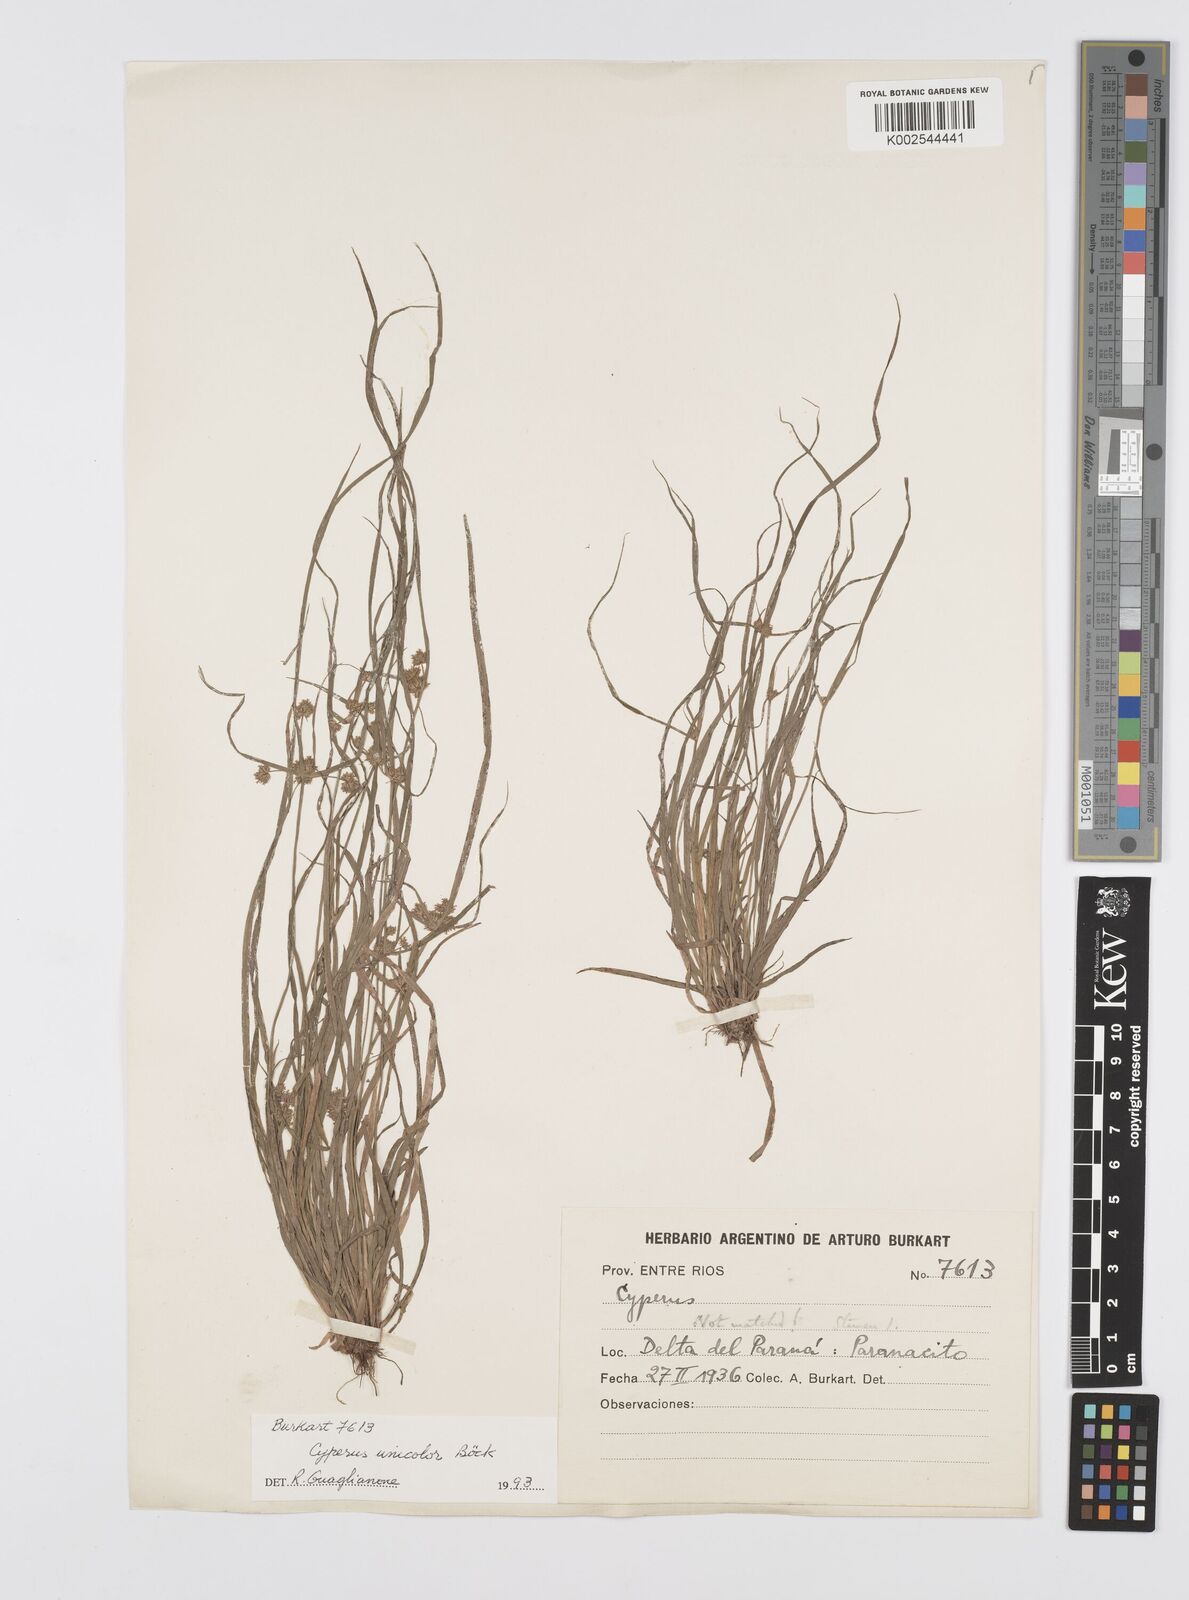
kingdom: Plantae
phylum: Tracheophyta
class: Liliopsida
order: Poales
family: Cyperaceae
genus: Cyperus
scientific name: Cyperus
